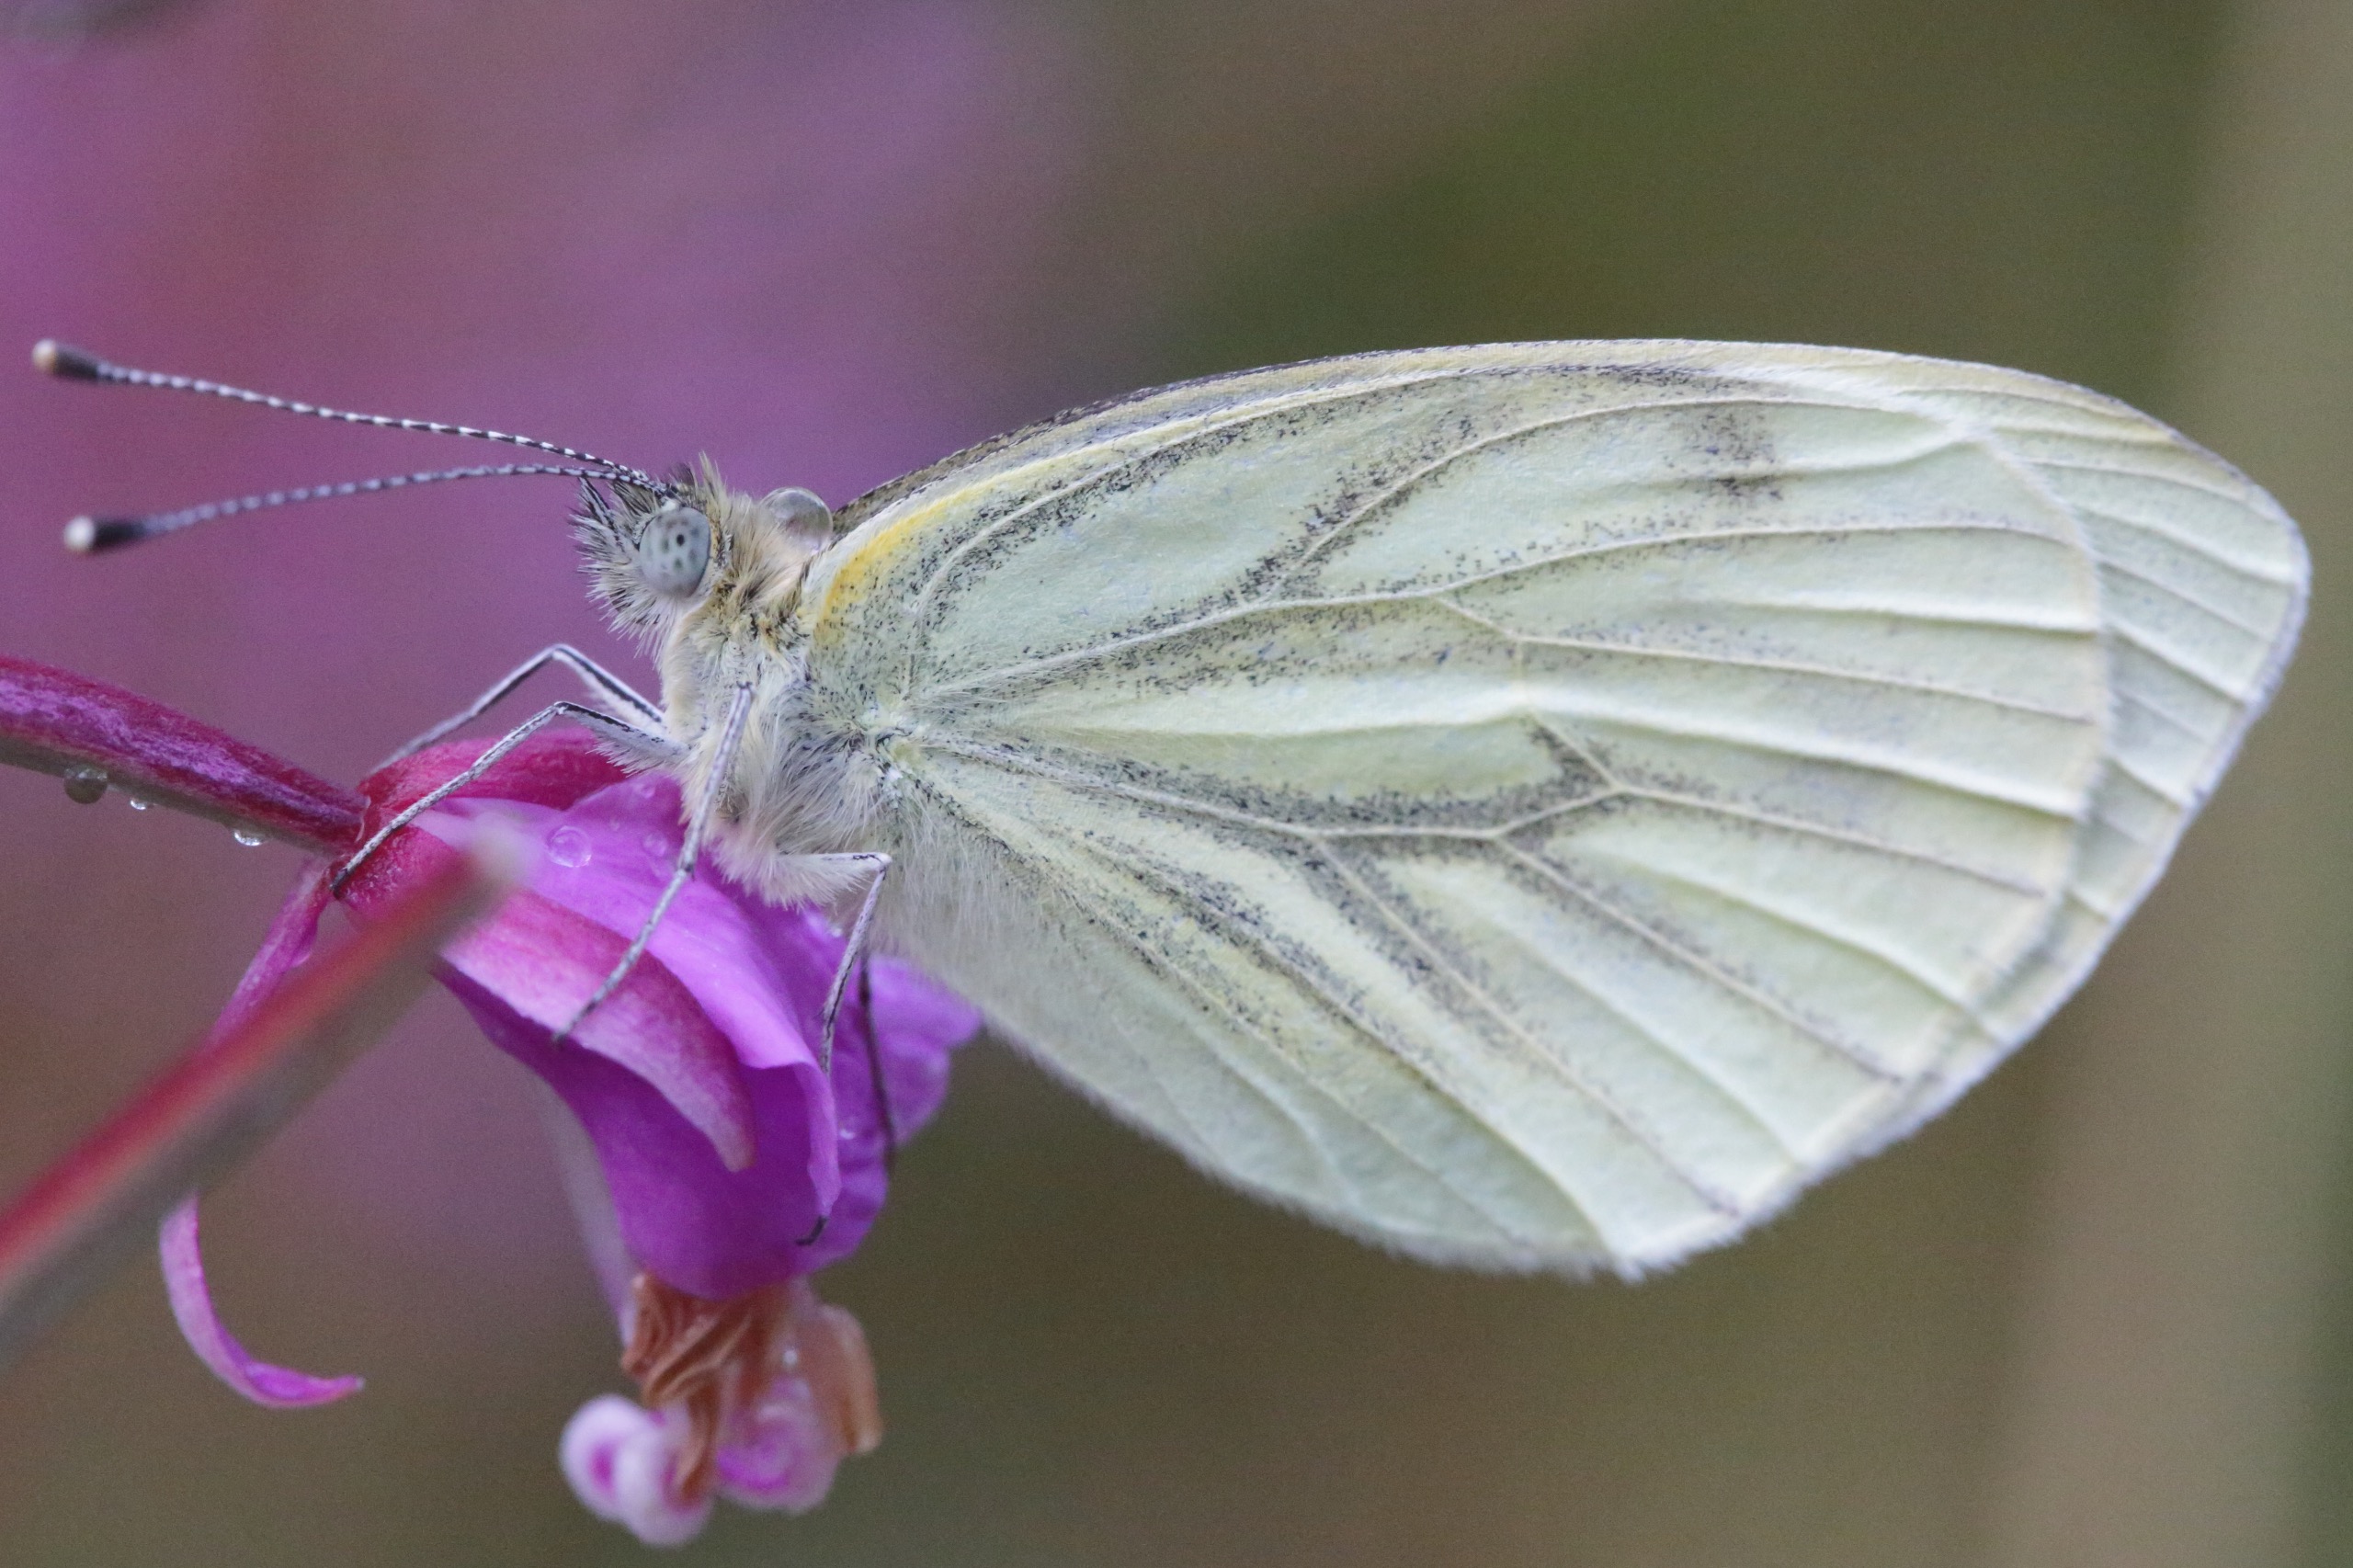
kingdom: Animalia
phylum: Arthropoda
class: Insecta
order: Lepidoptera
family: Pieridae
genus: Pieris
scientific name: Pieris napi
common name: Grønåret kålsommerfugl
